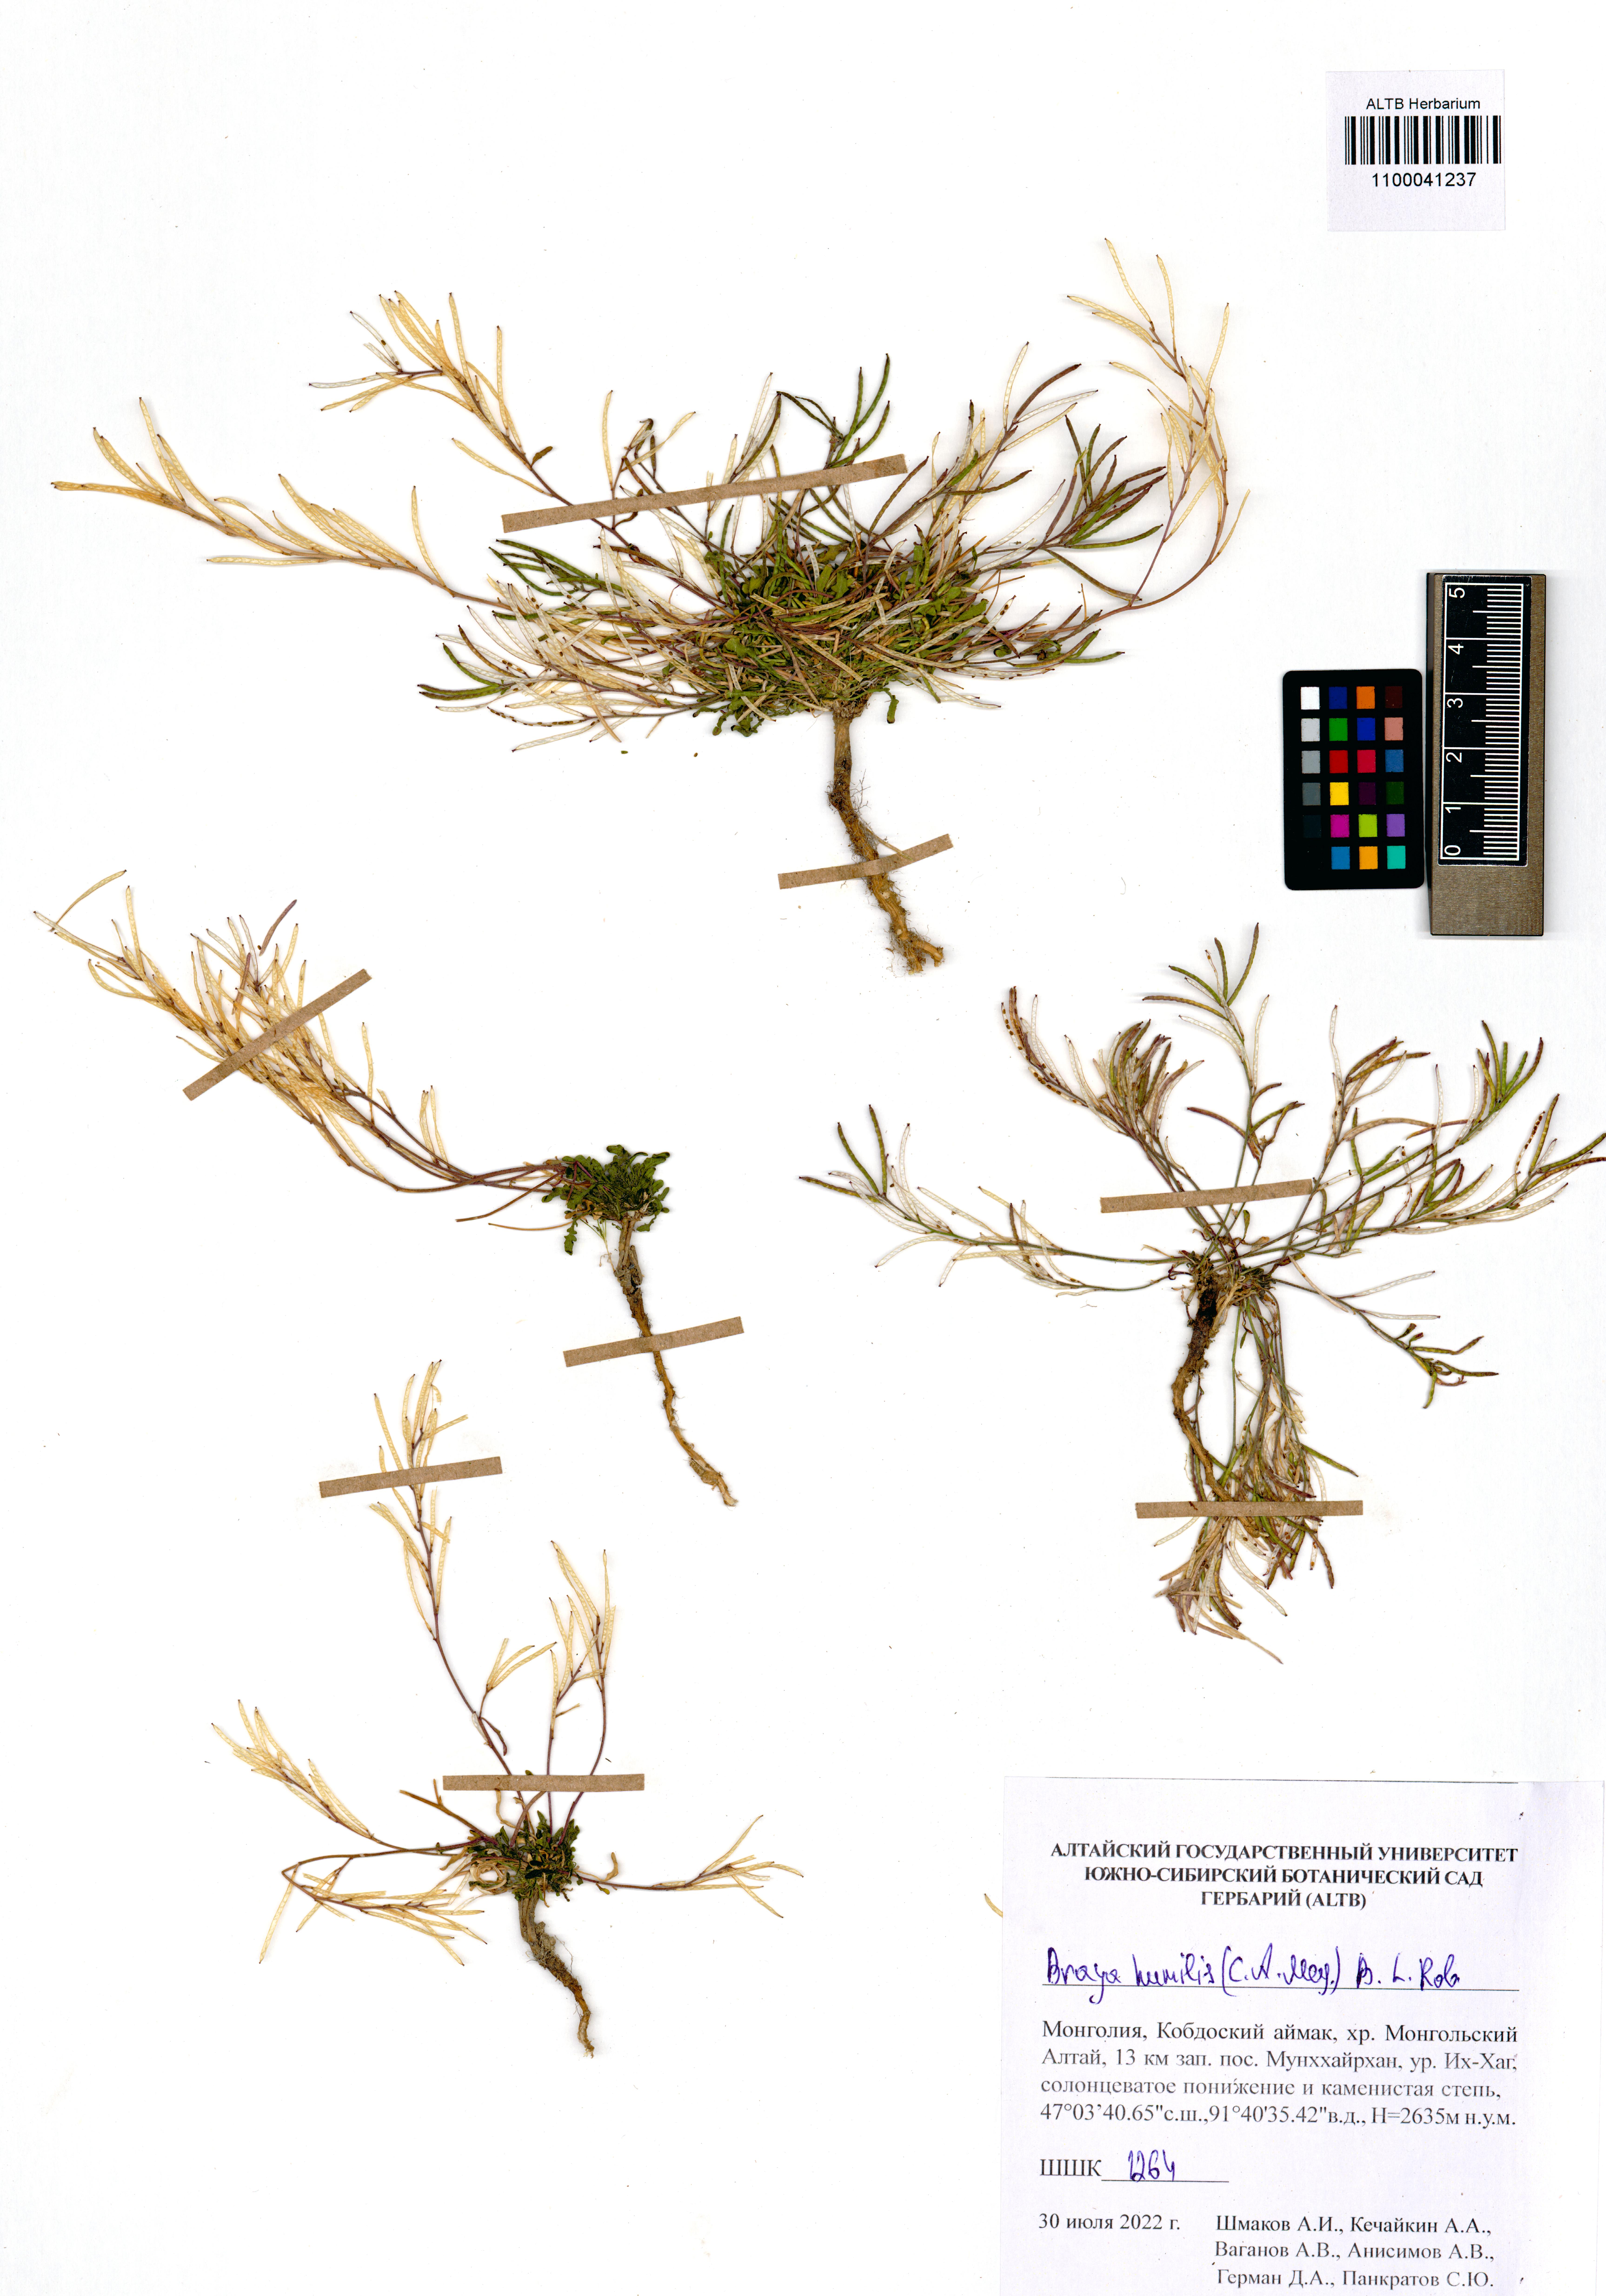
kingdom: Plantae
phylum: Tracheophyta
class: Magnoliopsida
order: Brassicales
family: Brassicaceae
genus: Braya
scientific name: Braya humilis
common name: Alpine northern rockcress
